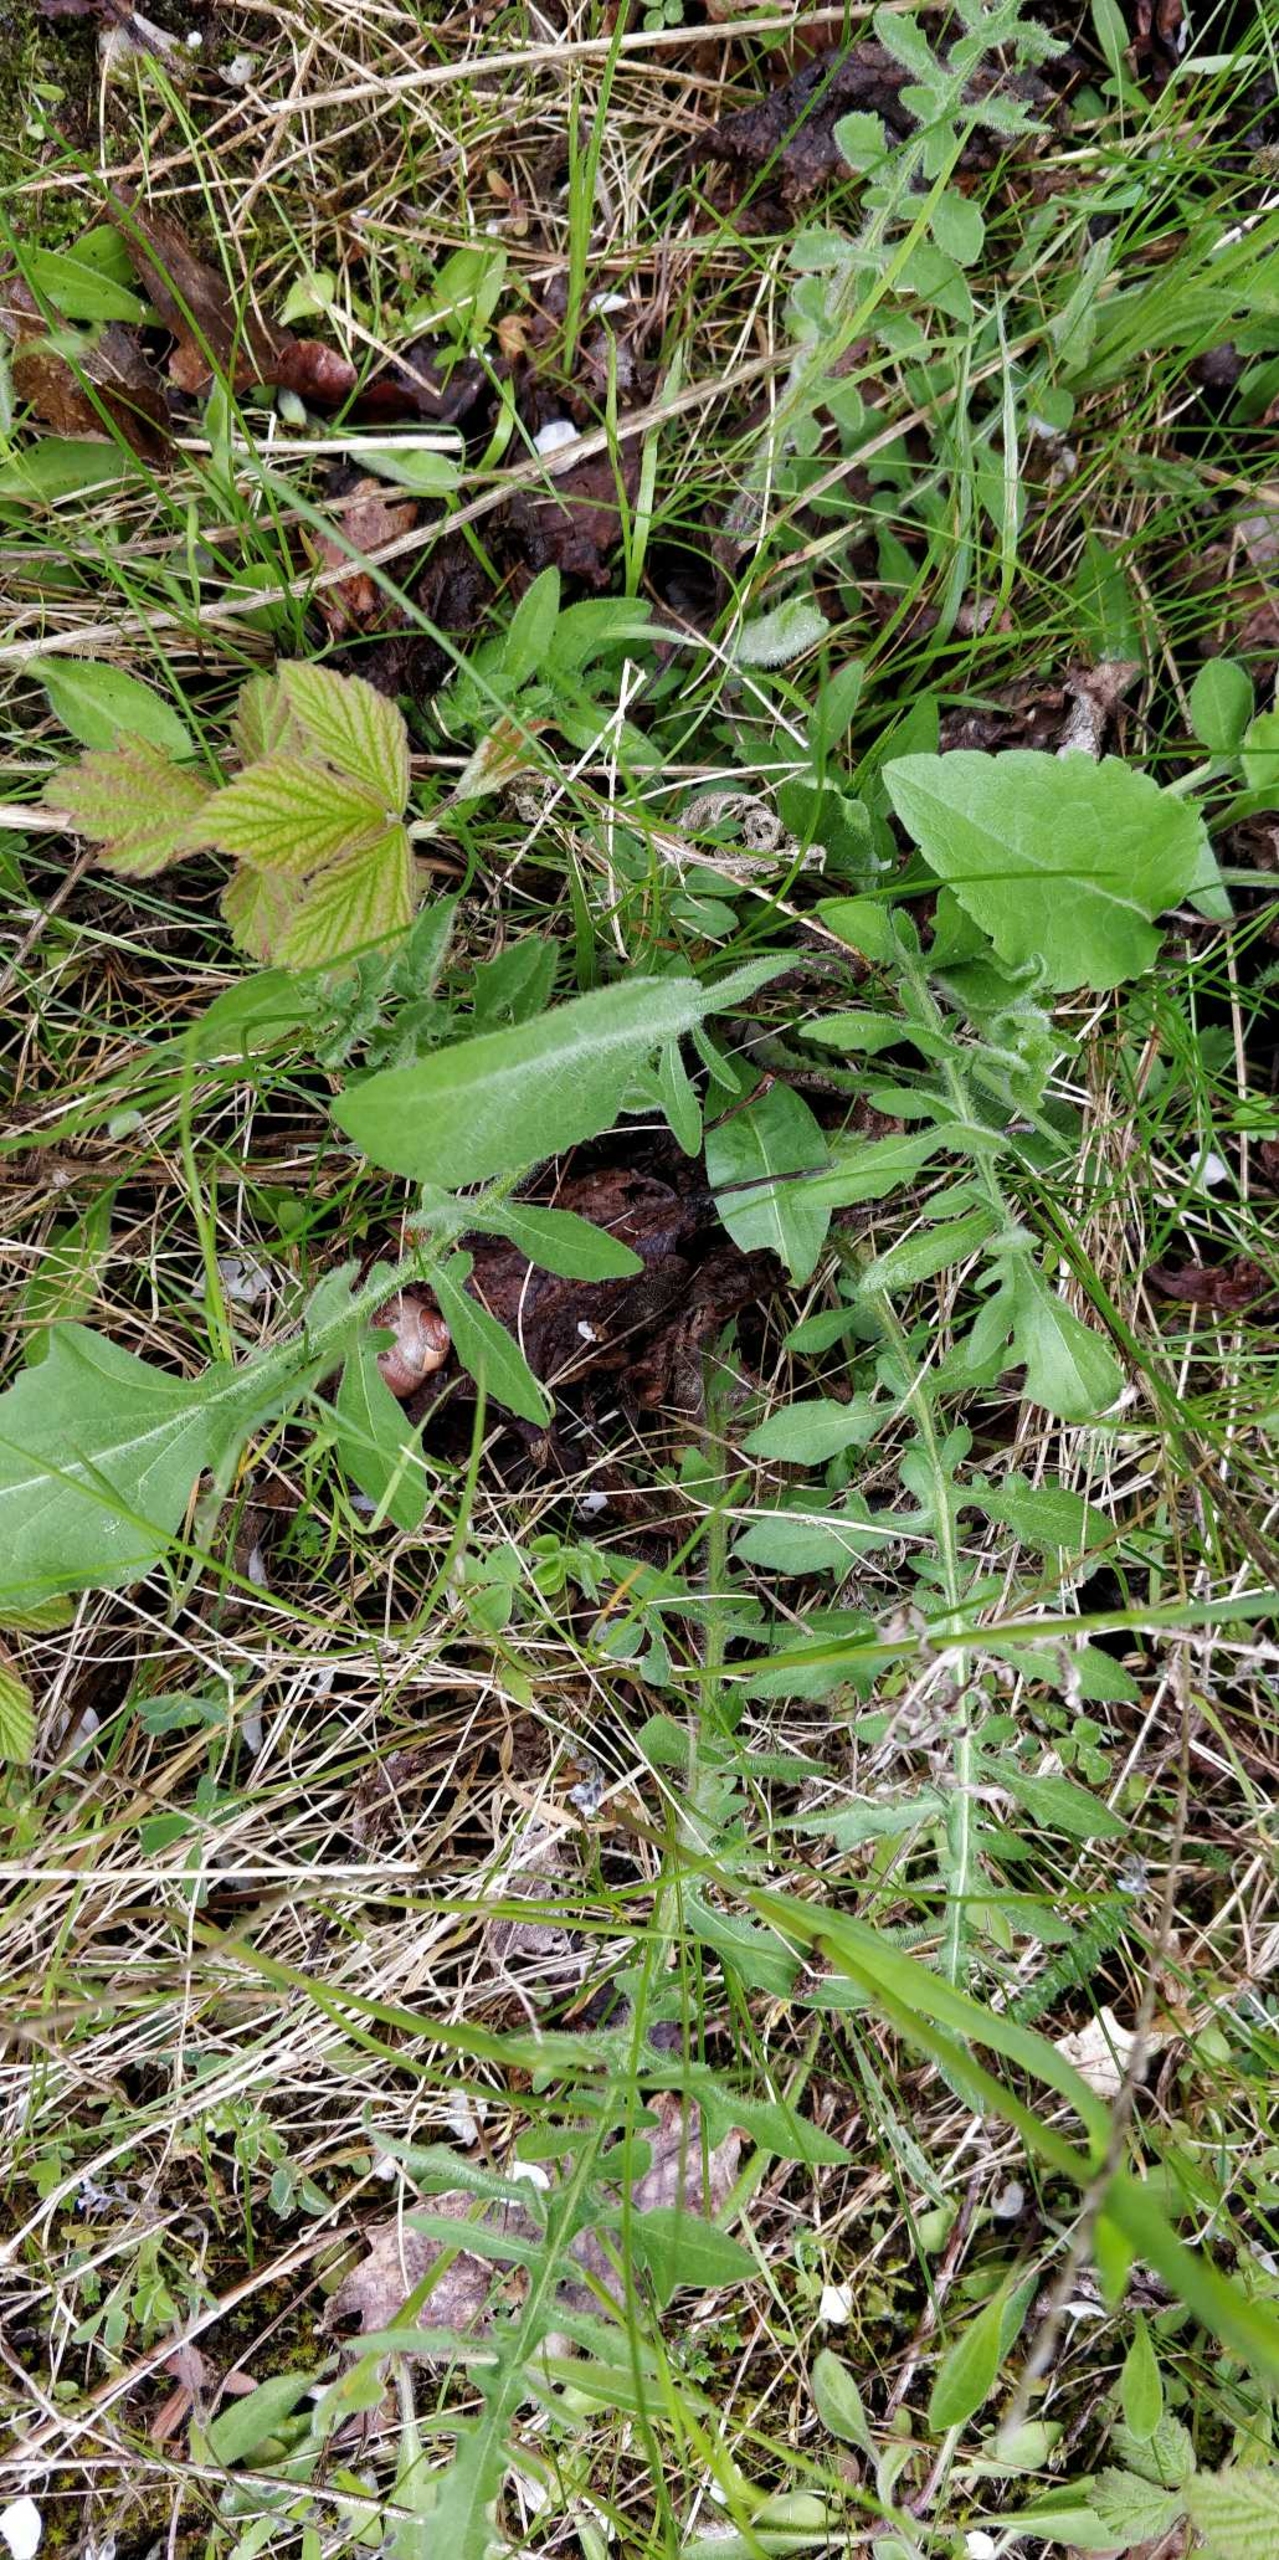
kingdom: Plantae
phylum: Tracheophyta
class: Magnoliopsida
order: Asterales
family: Asteraceae
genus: Centaurea
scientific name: Centaurea scabiosa
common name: Stor knopurt
